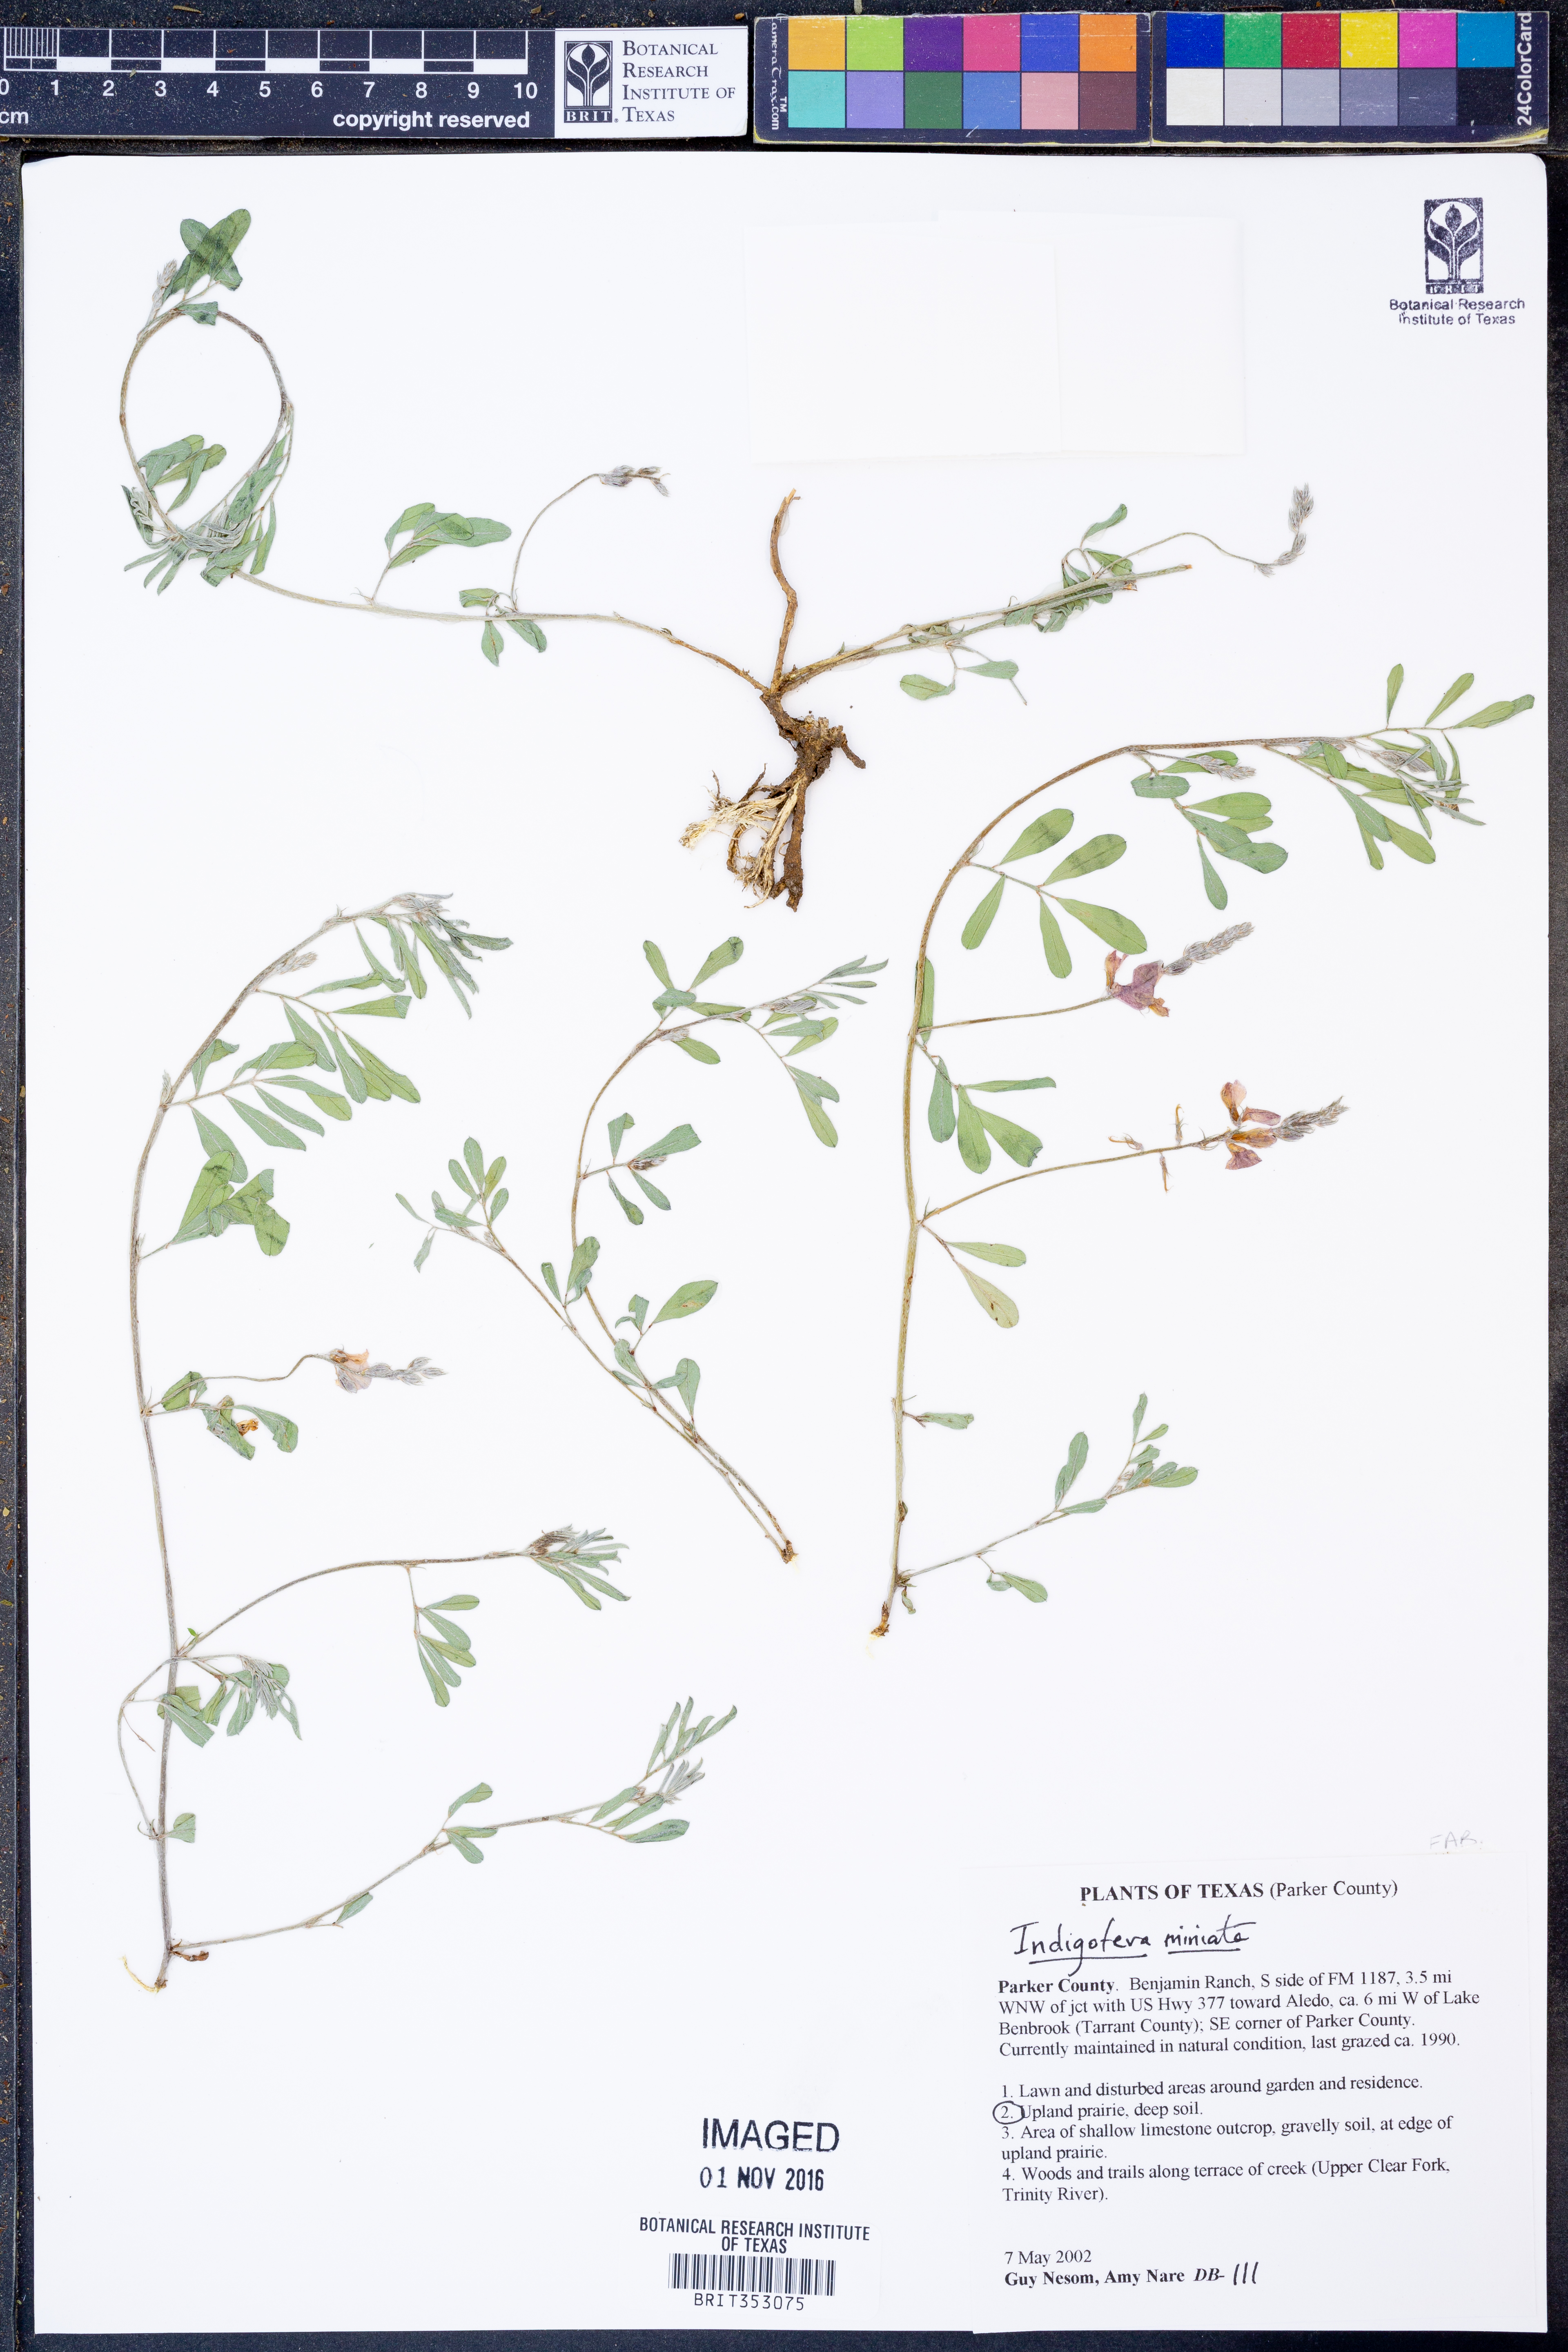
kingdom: Plantae
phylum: Tracheophyta
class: Magnoliopsida
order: Fabales
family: Fabaceae
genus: Indigofera
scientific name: Indigofera miniata
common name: Coast indigo
